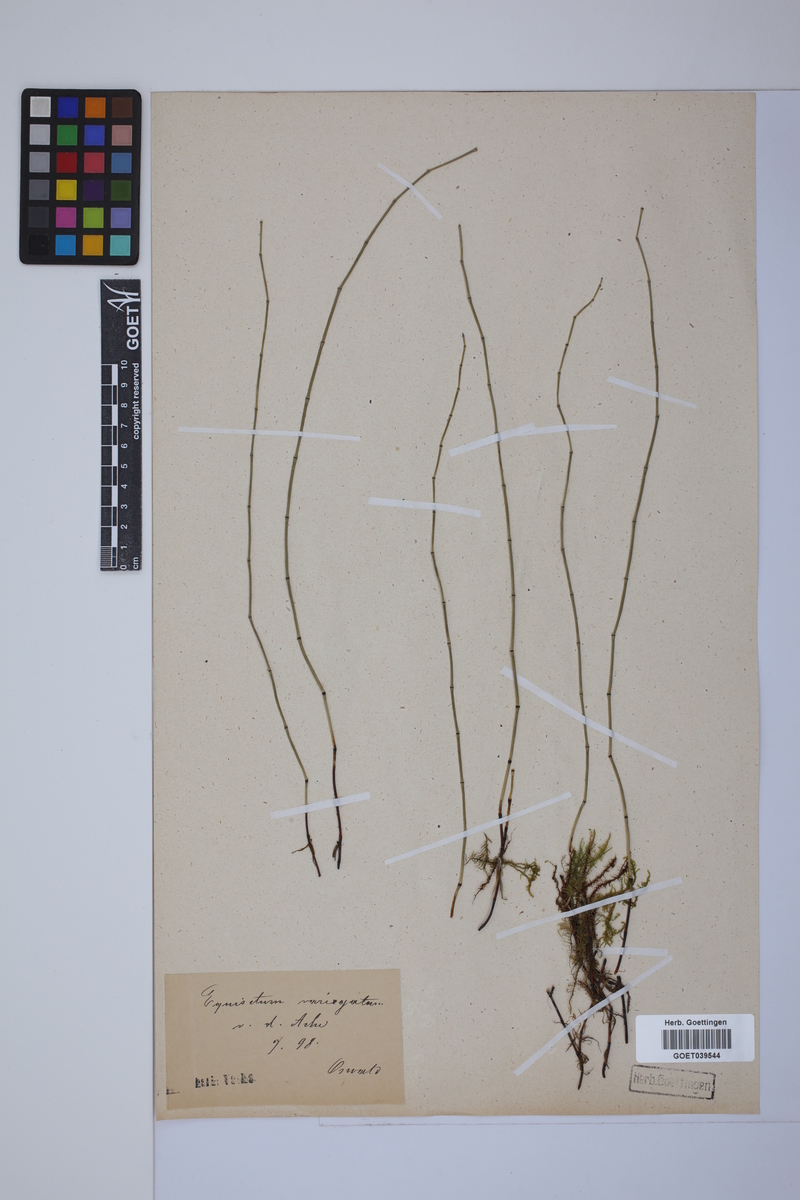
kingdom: Plantae
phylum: Tracheophyta
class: Polypodiopsida
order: Equisetales
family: Equisetaceae
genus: Equisetum
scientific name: Equisetum variegatum
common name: Variegated horsetail
